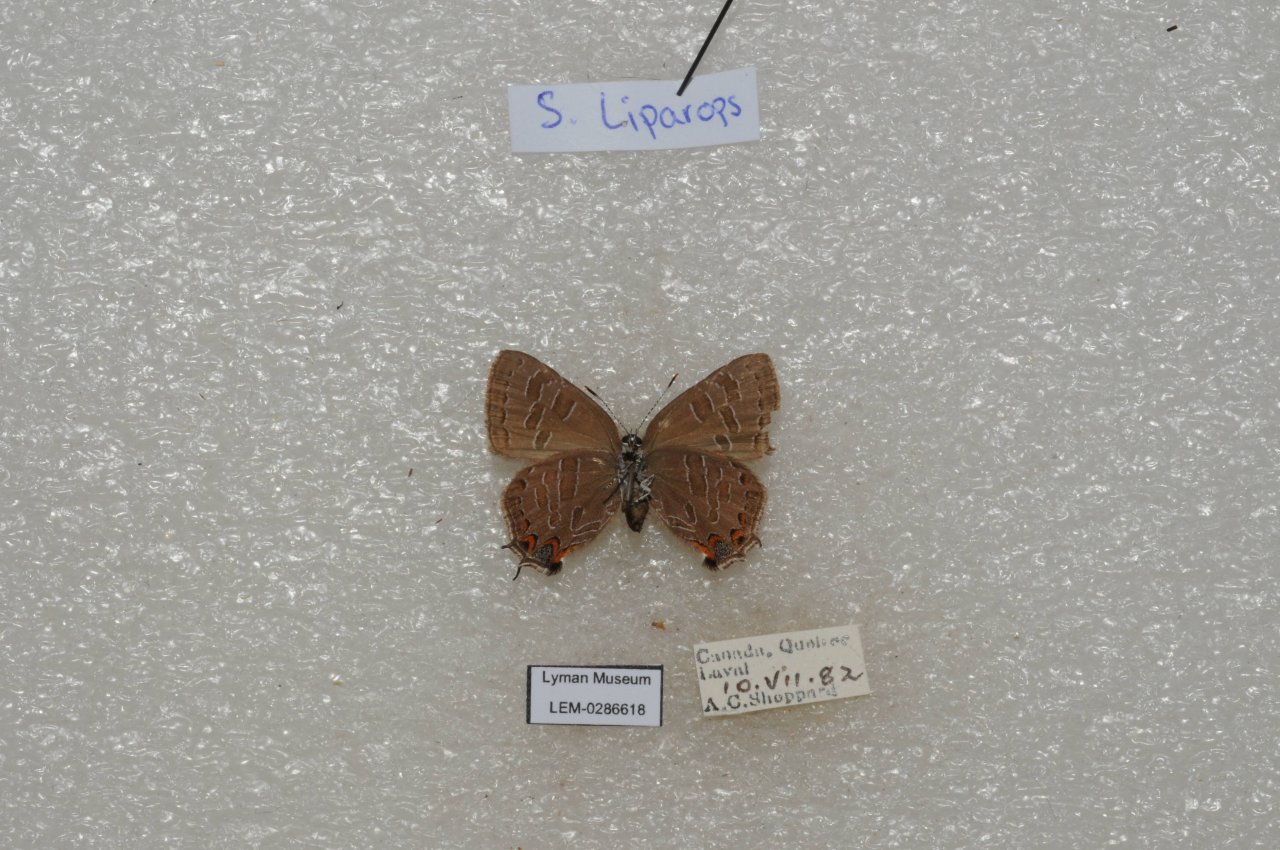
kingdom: Animalia
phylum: Arthropoda
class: Insecta
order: Lepidoptera
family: Lycaenidae
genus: Satyrium
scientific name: Satyrium liparops
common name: Striped Hairstreak
